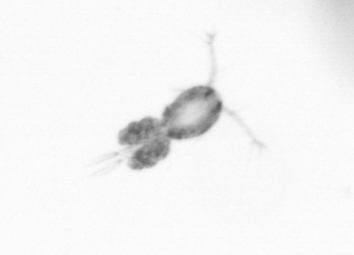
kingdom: Animalia
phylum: Arthropoda
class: Copepoda
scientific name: Copepoda
